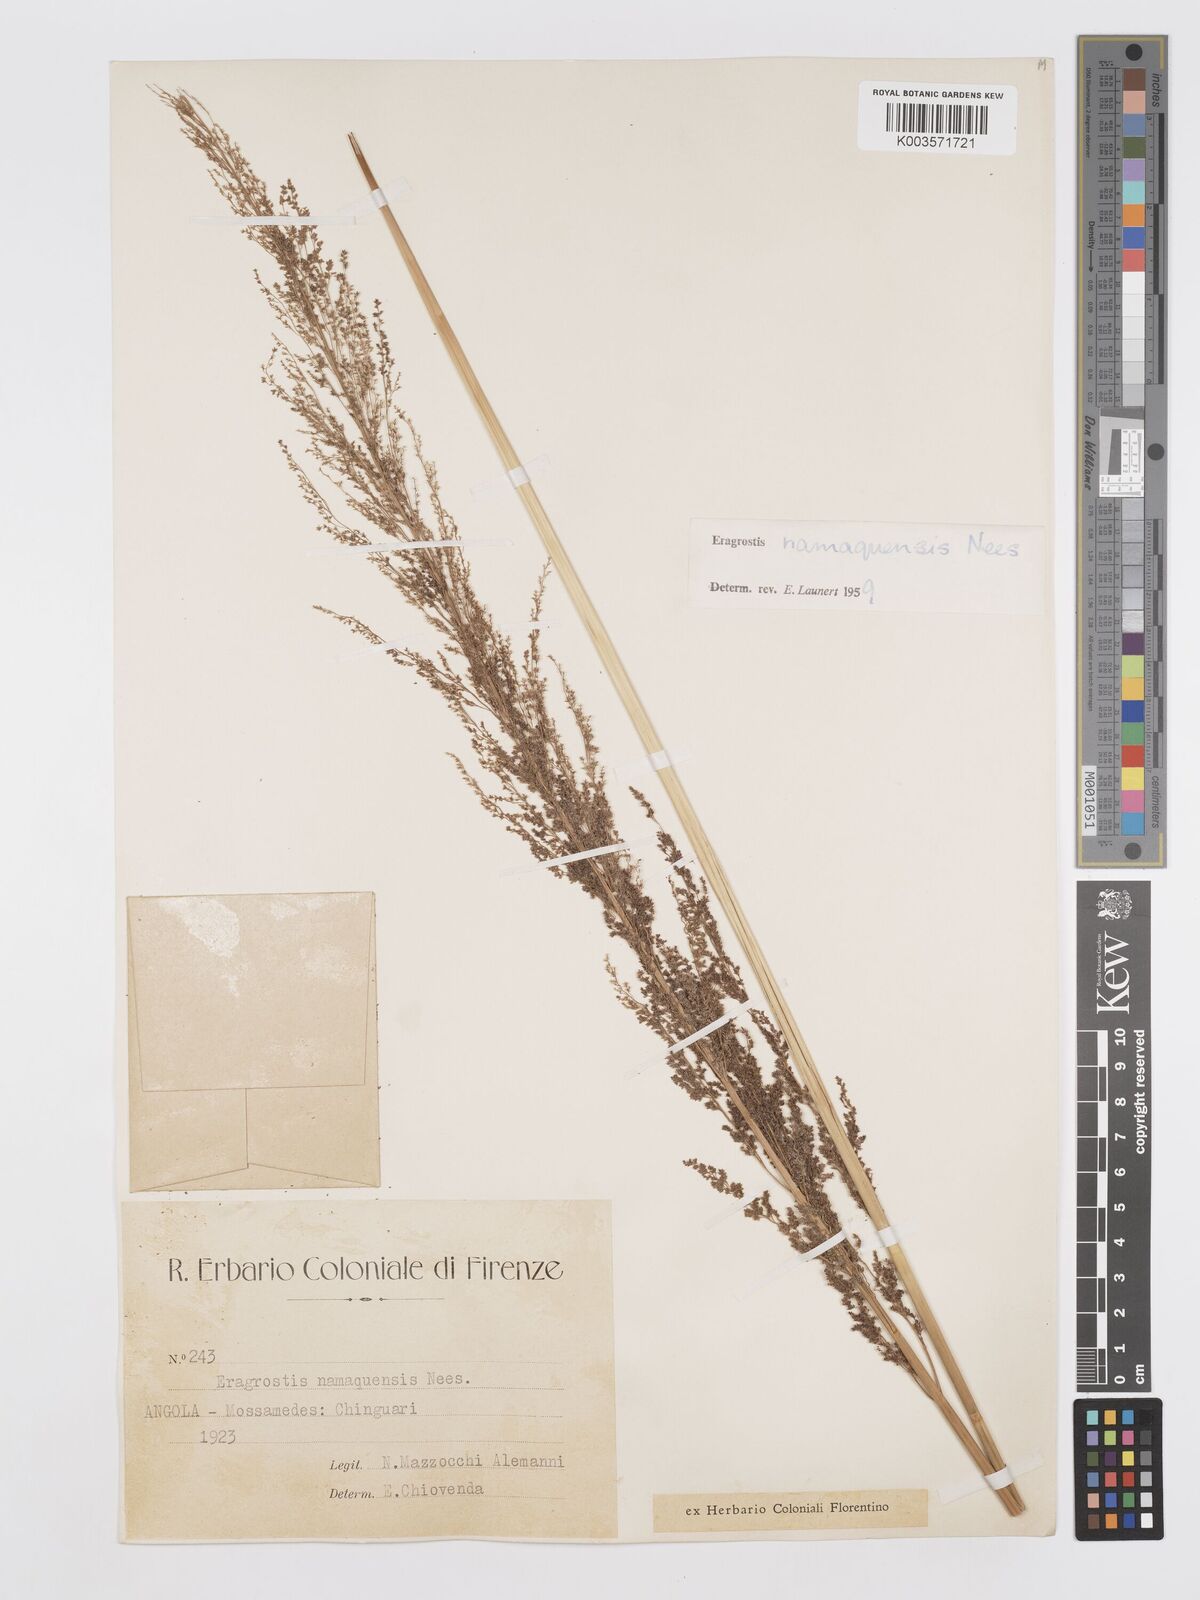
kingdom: Plantae
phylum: Tracheophyta
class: Liliopsida
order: Poales
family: Poaceae
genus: Eragrostis
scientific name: Eragrostis japonica
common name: Pond lovegrass
